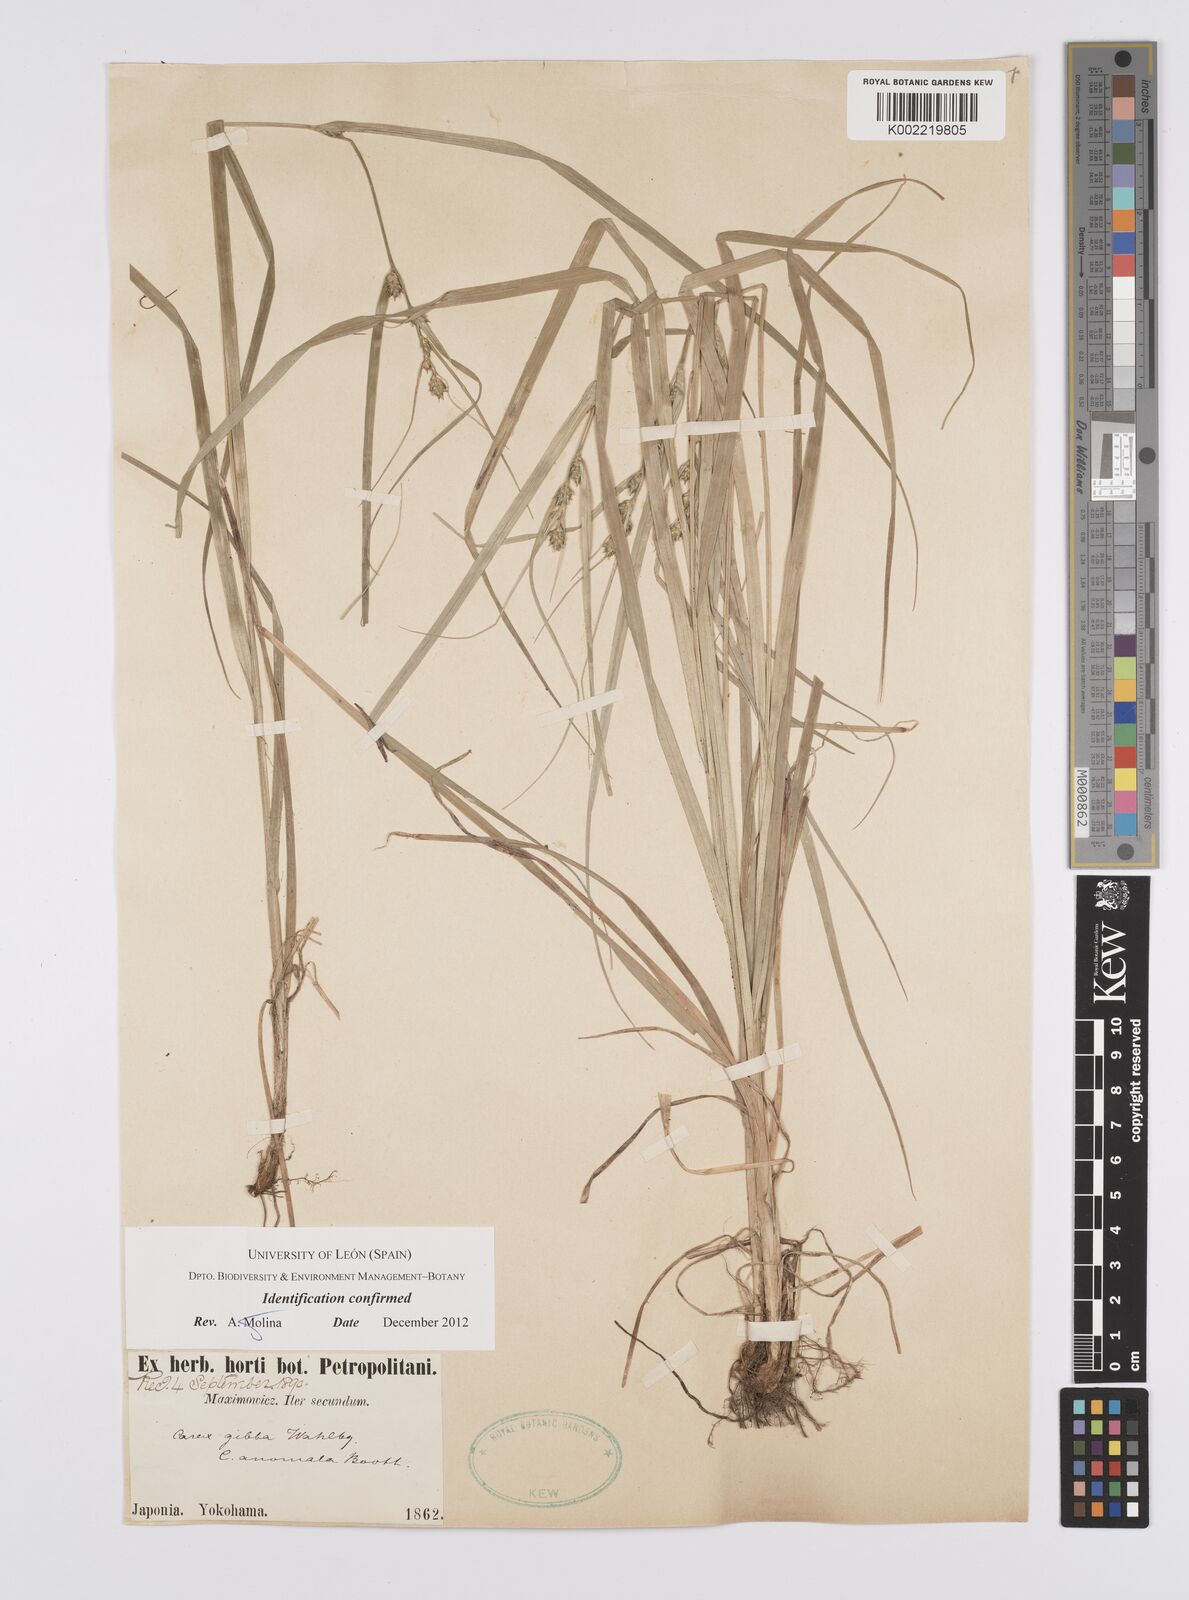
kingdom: Plantae
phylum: Tracheophyta
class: Liliopsida
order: Poales
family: Cyperaceae
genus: Carex
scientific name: Carex gibba
